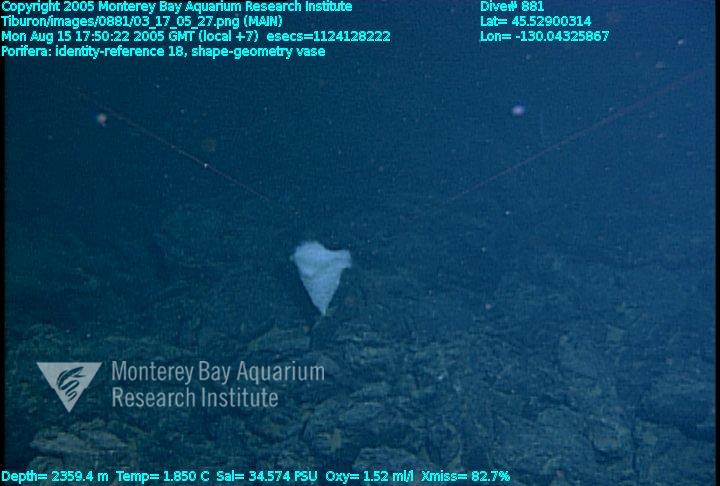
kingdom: Animalia
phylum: Porifera
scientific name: Porifera
